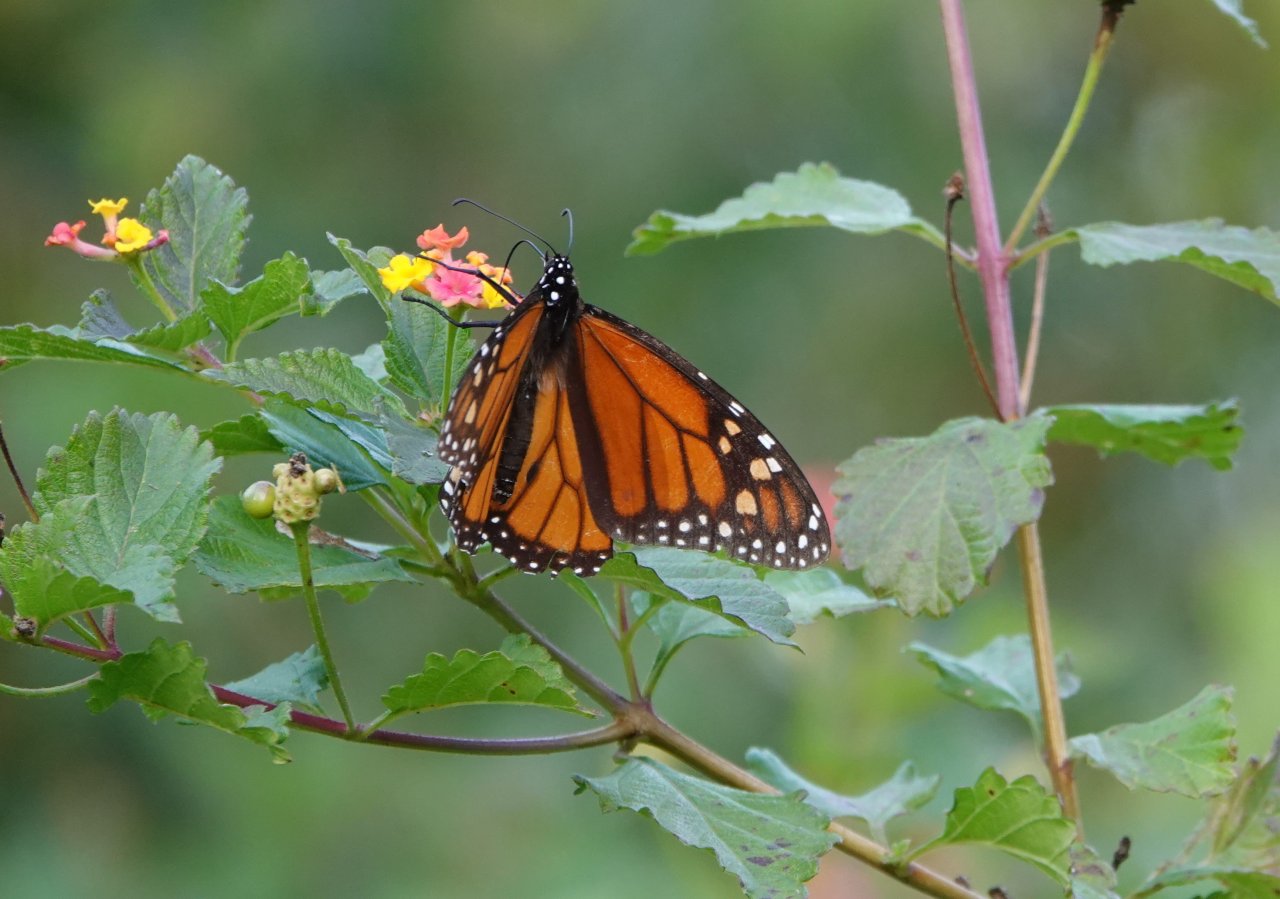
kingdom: Animalia
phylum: Arthropoda
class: Insecta
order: Lepidoptera
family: Nymphalidae
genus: Danaus
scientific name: Danaus plexippus
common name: Monarch
